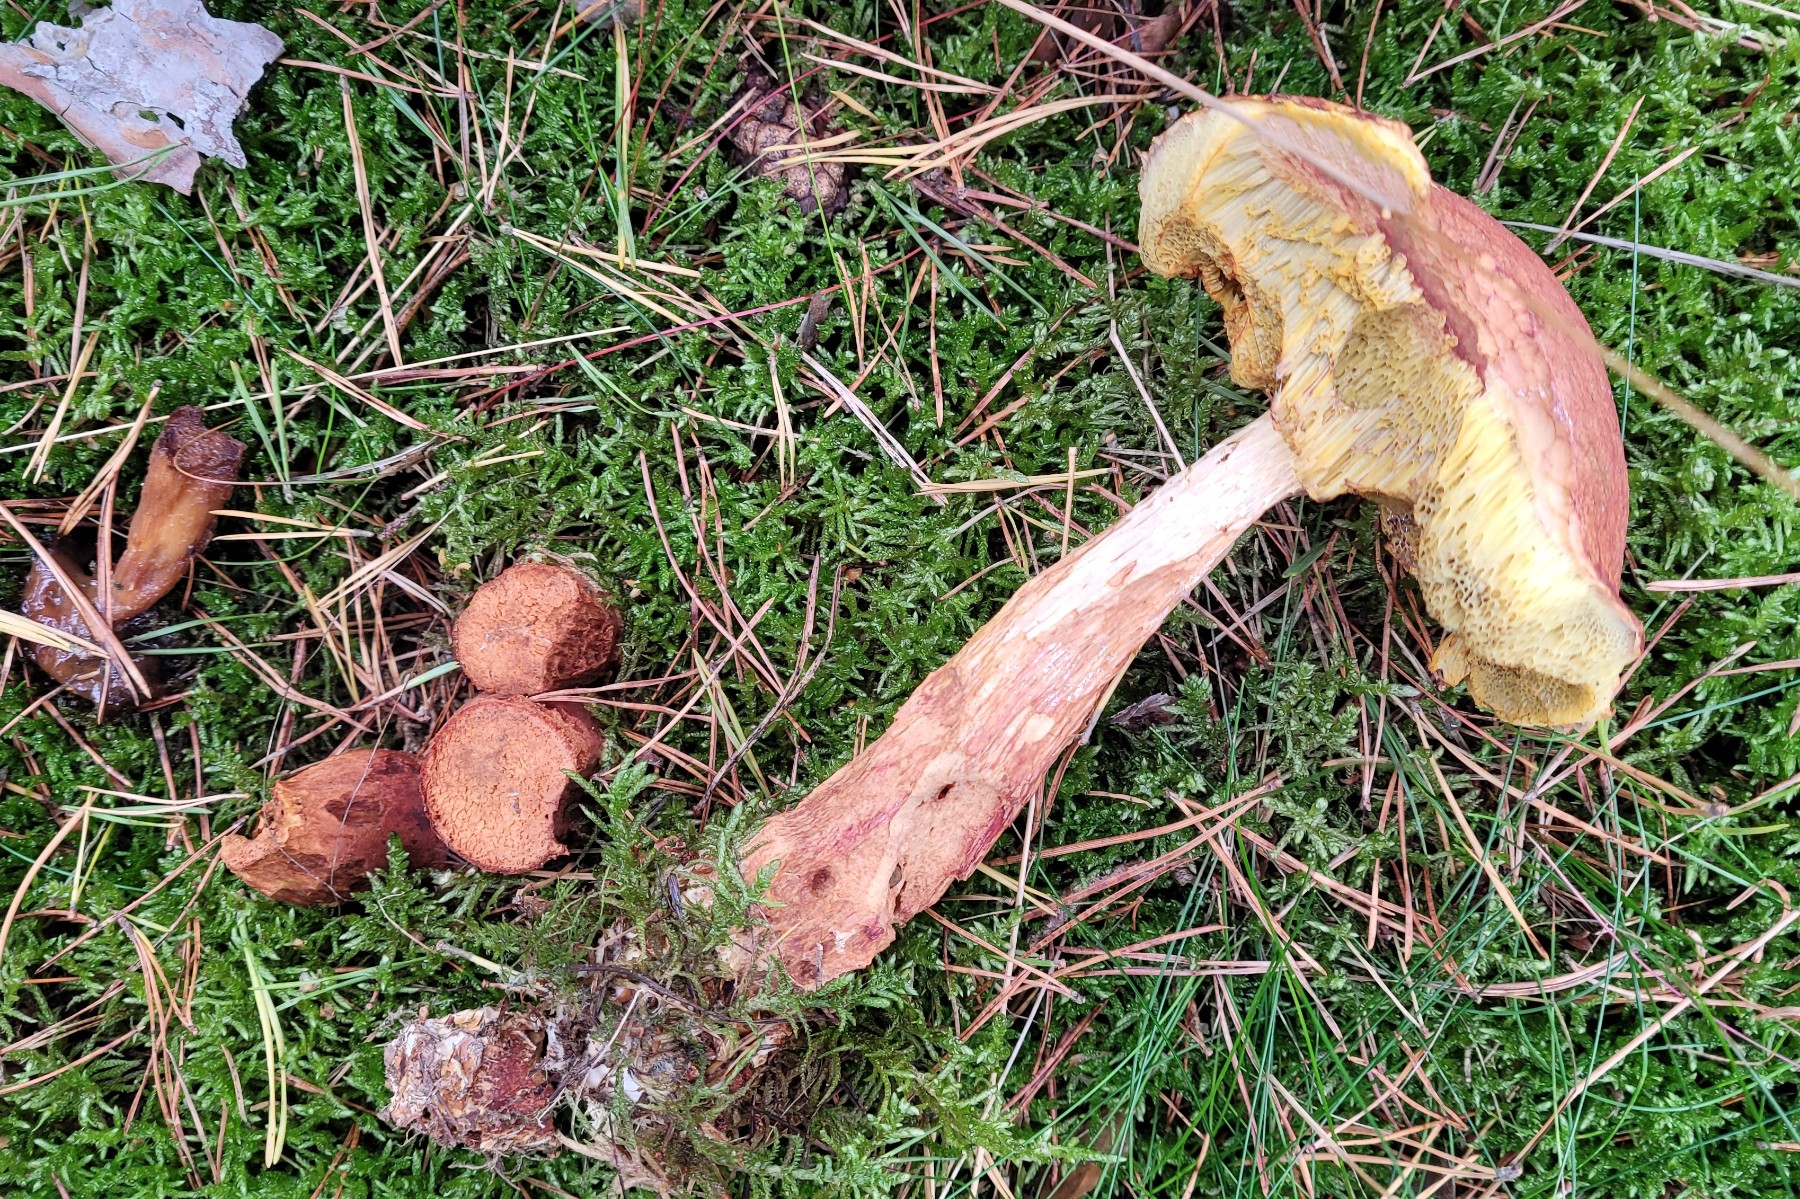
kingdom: Fungi
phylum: Basidiomycota
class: Agaricomycetes
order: Boletales
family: Boletaceae
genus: Aureoboletus
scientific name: Aureoboletus projectellus
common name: ribbestokket rørhat
